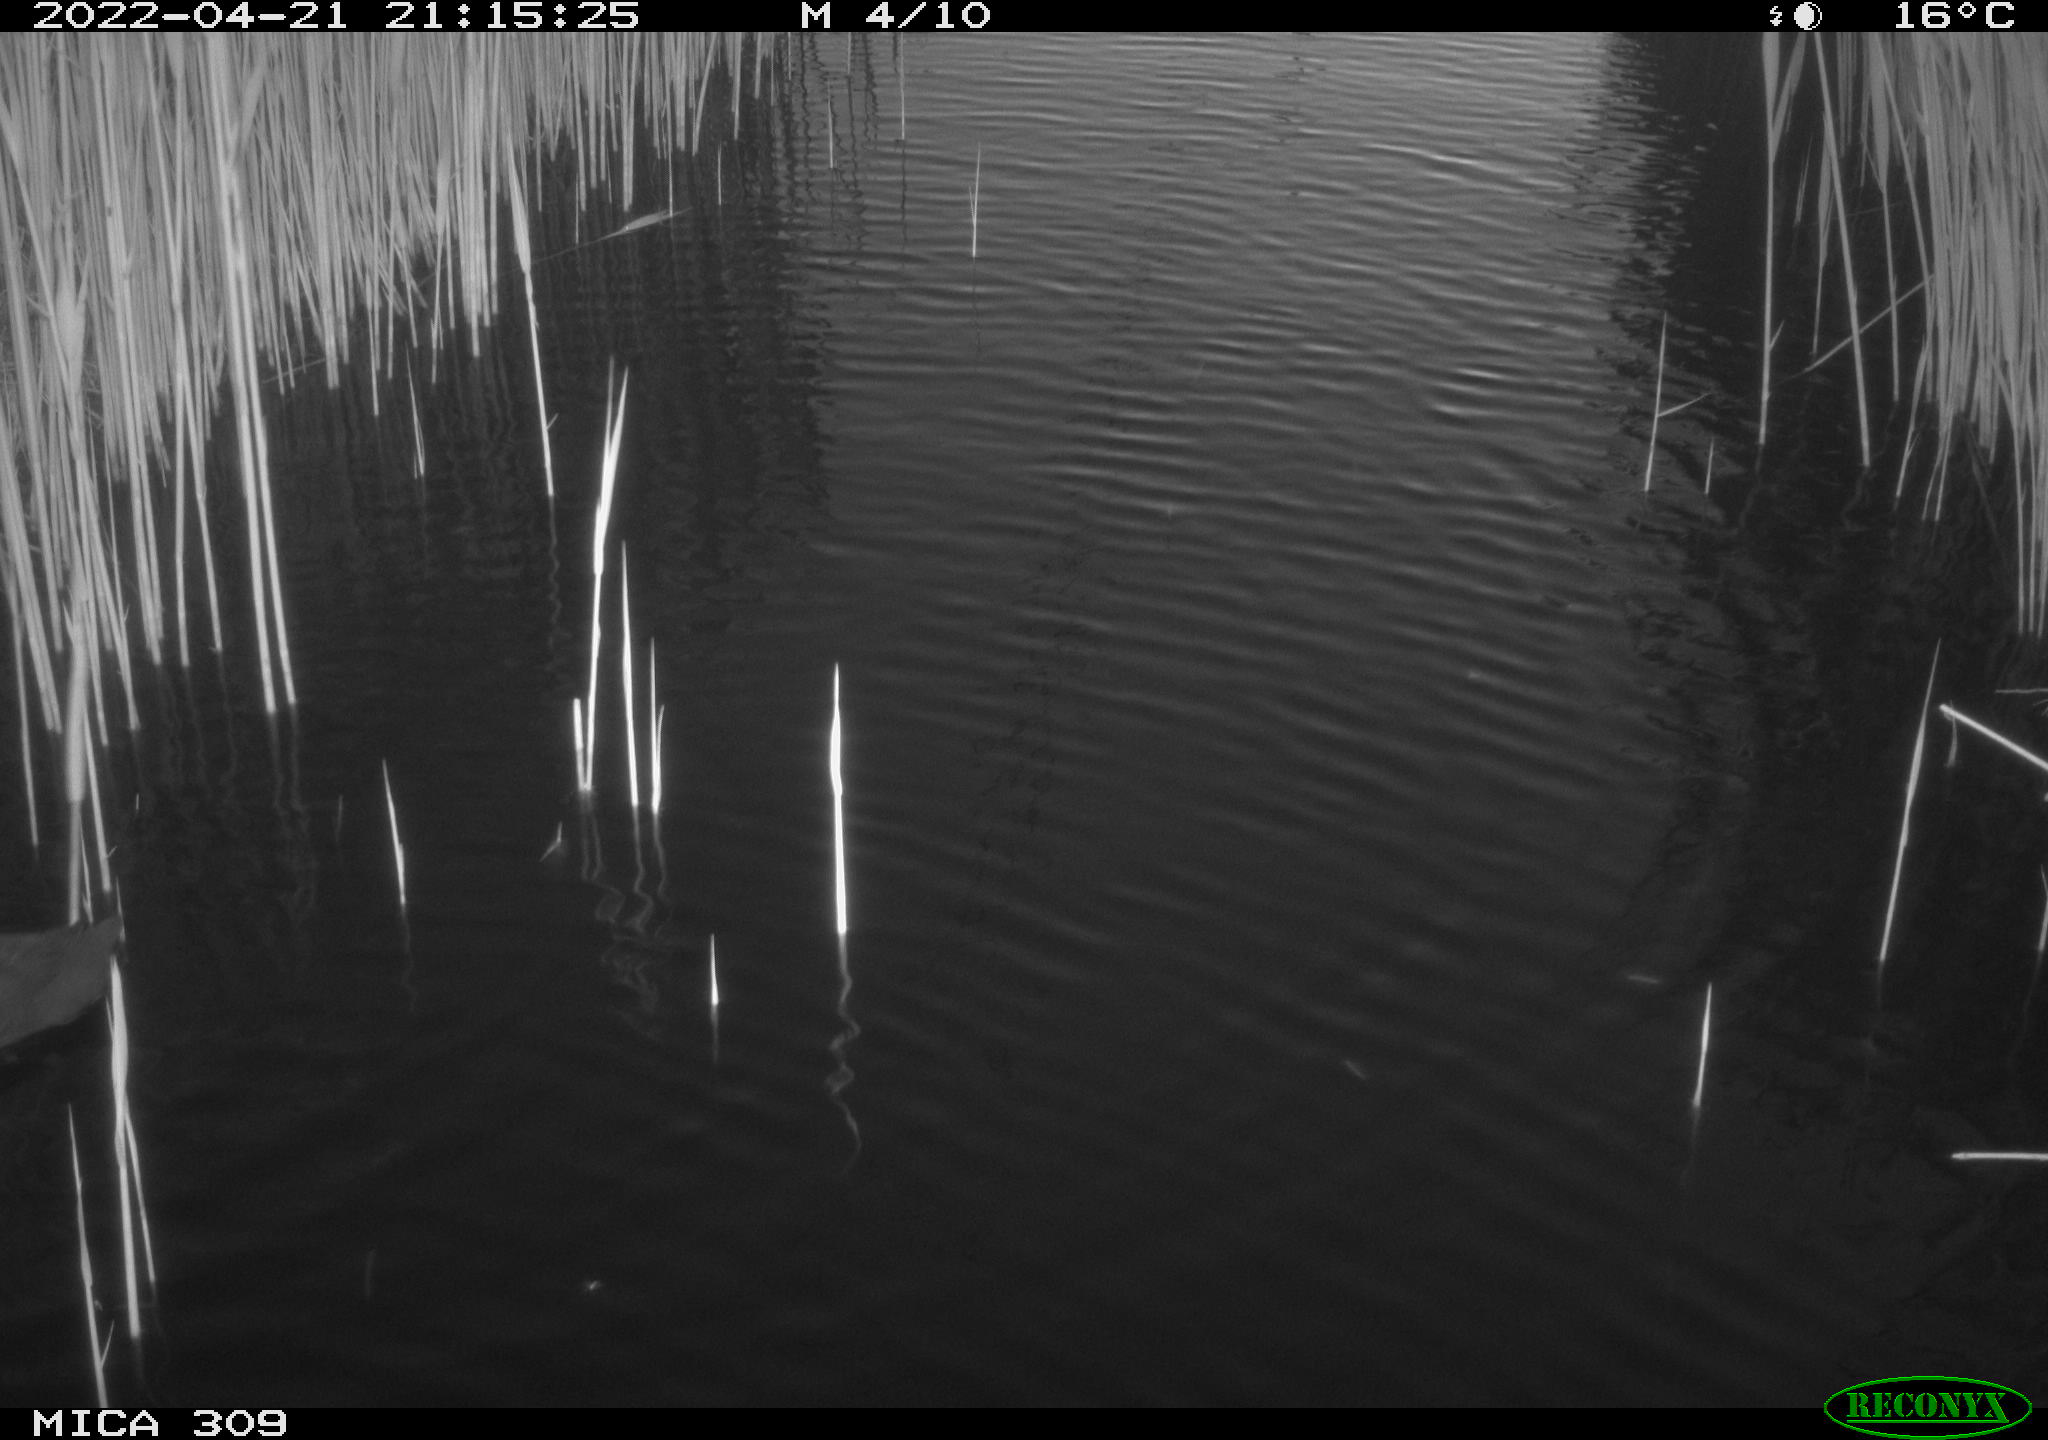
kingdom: Animalia
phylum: Chordata
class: Aves
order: Gruiformes
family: Rallidae
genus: Fulica
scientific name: Fulica atra
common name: Eurasian coot
